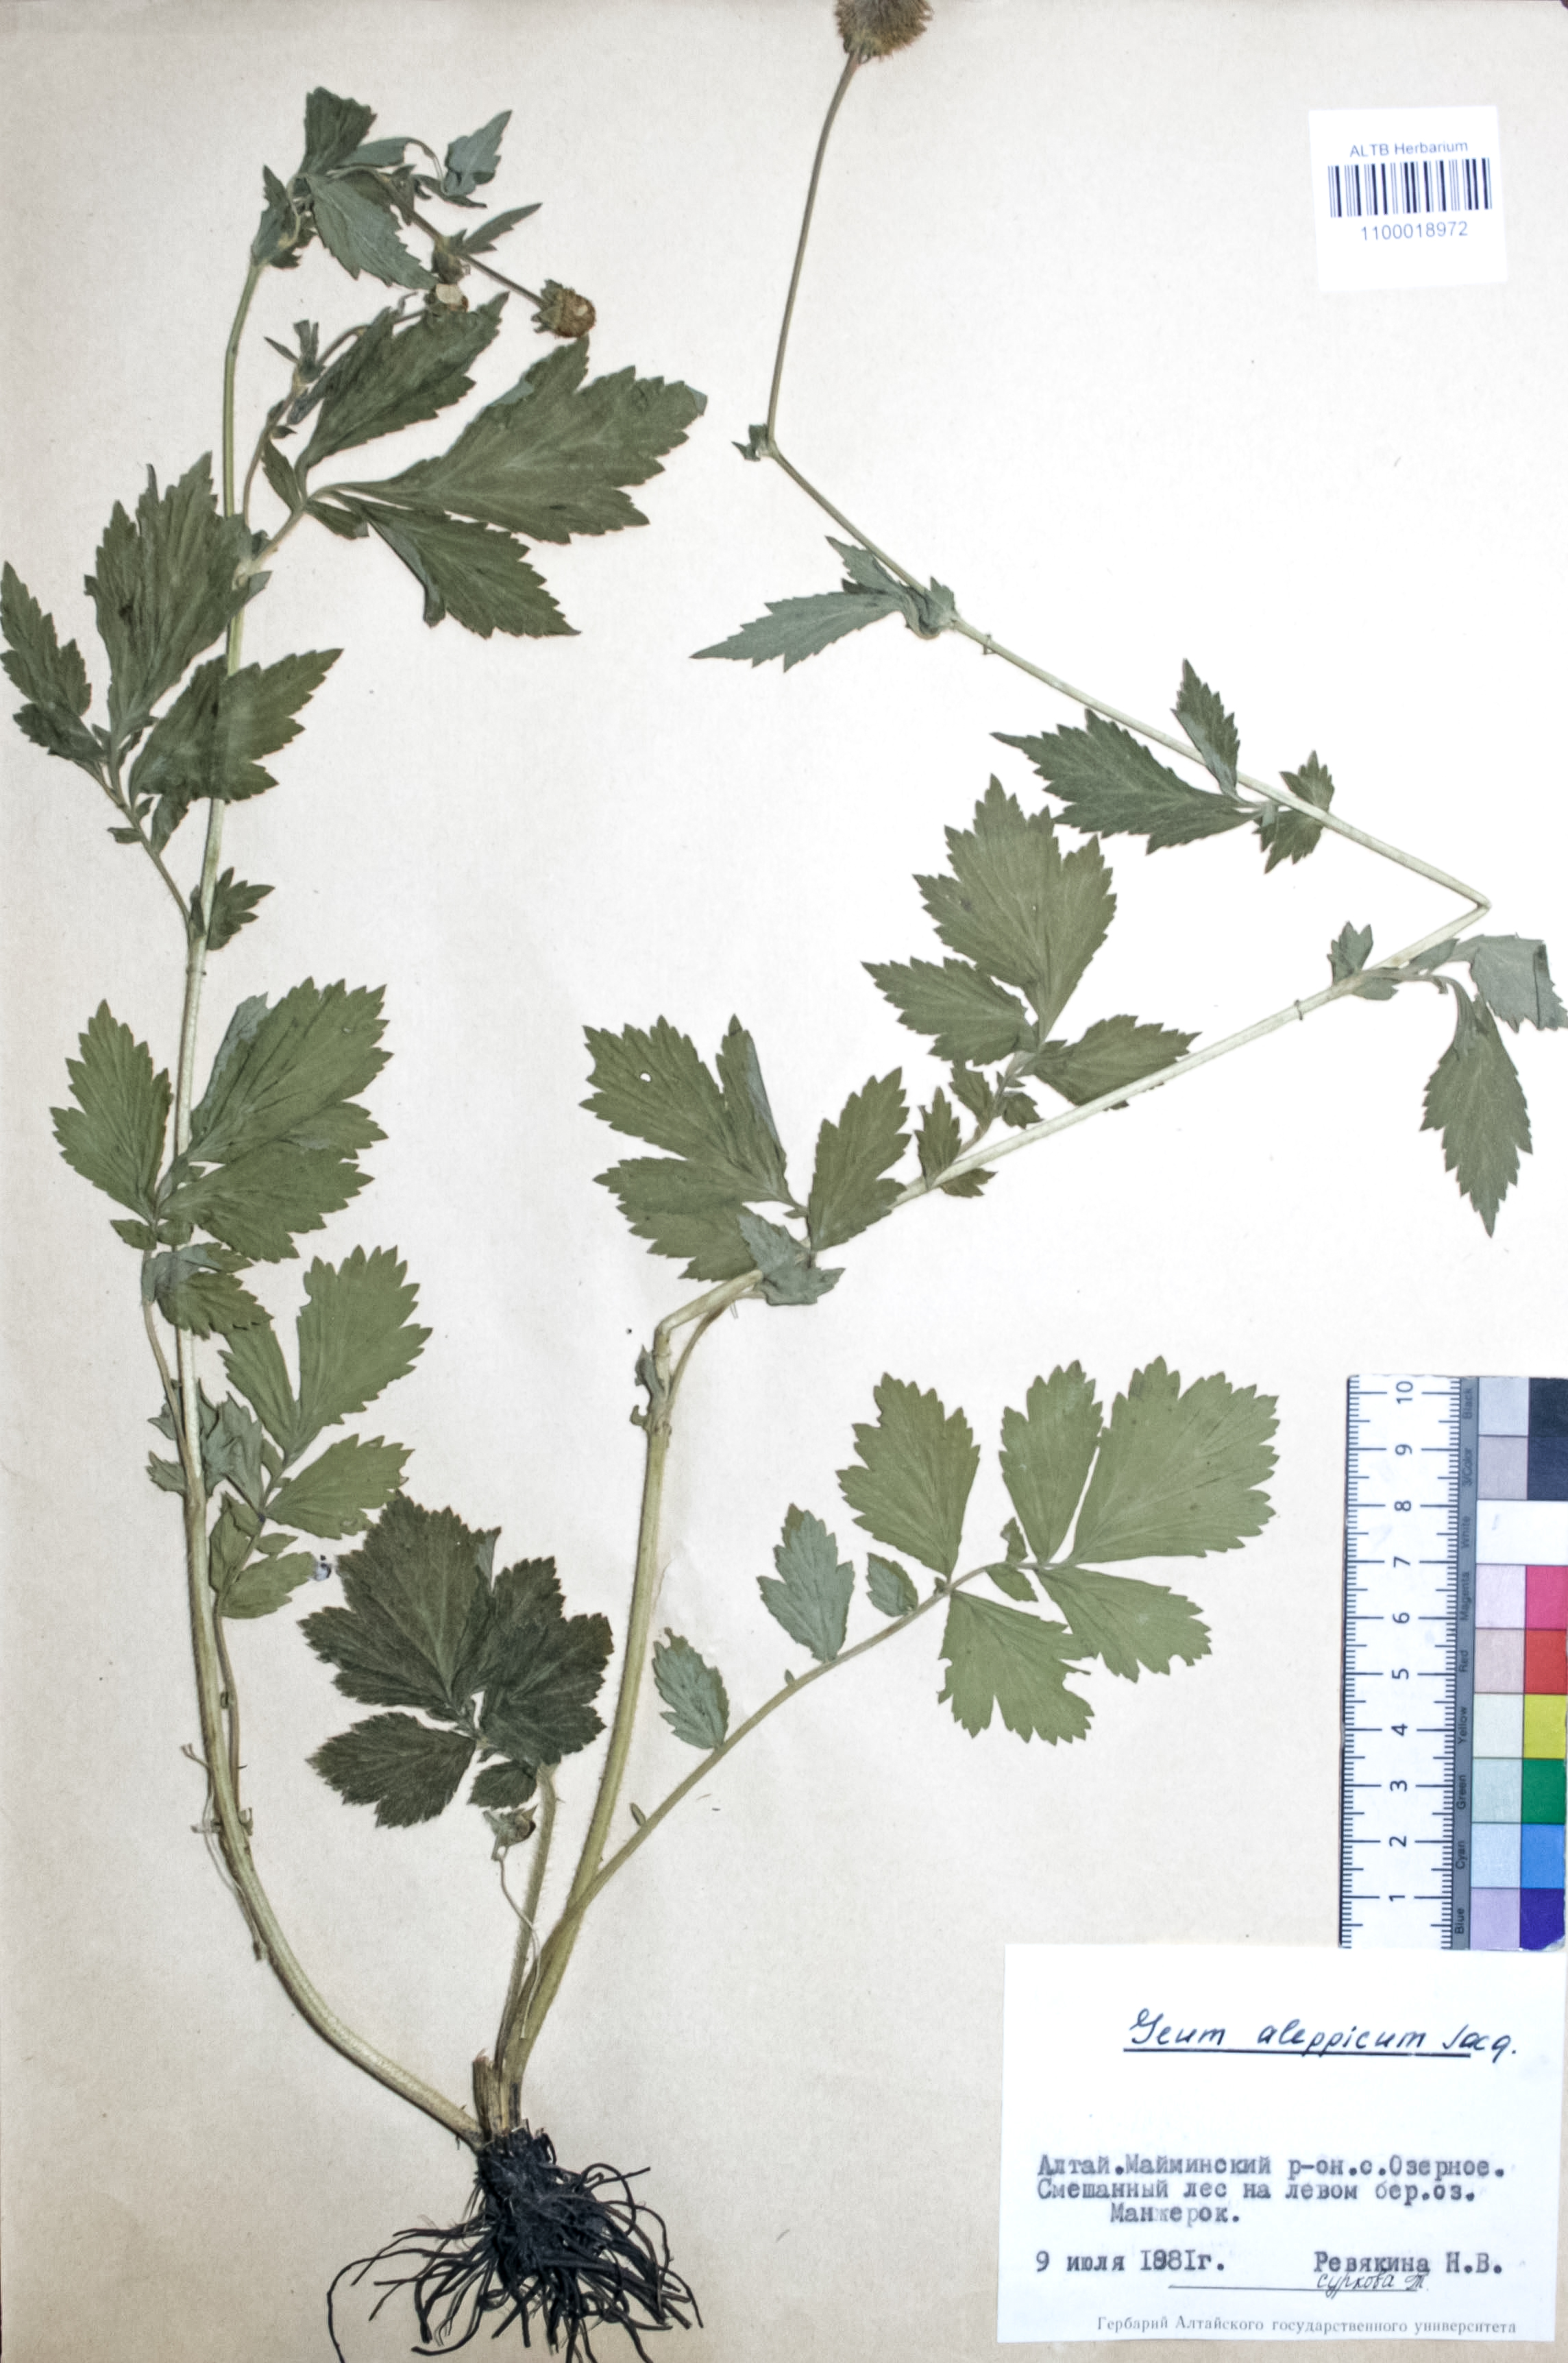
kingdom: Plantae
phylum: Tracheophyta
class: Magnoliopsida
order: Rosales
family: Rosaceae
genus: Geum
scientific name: Geum aleppicum
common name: Yellow avens
